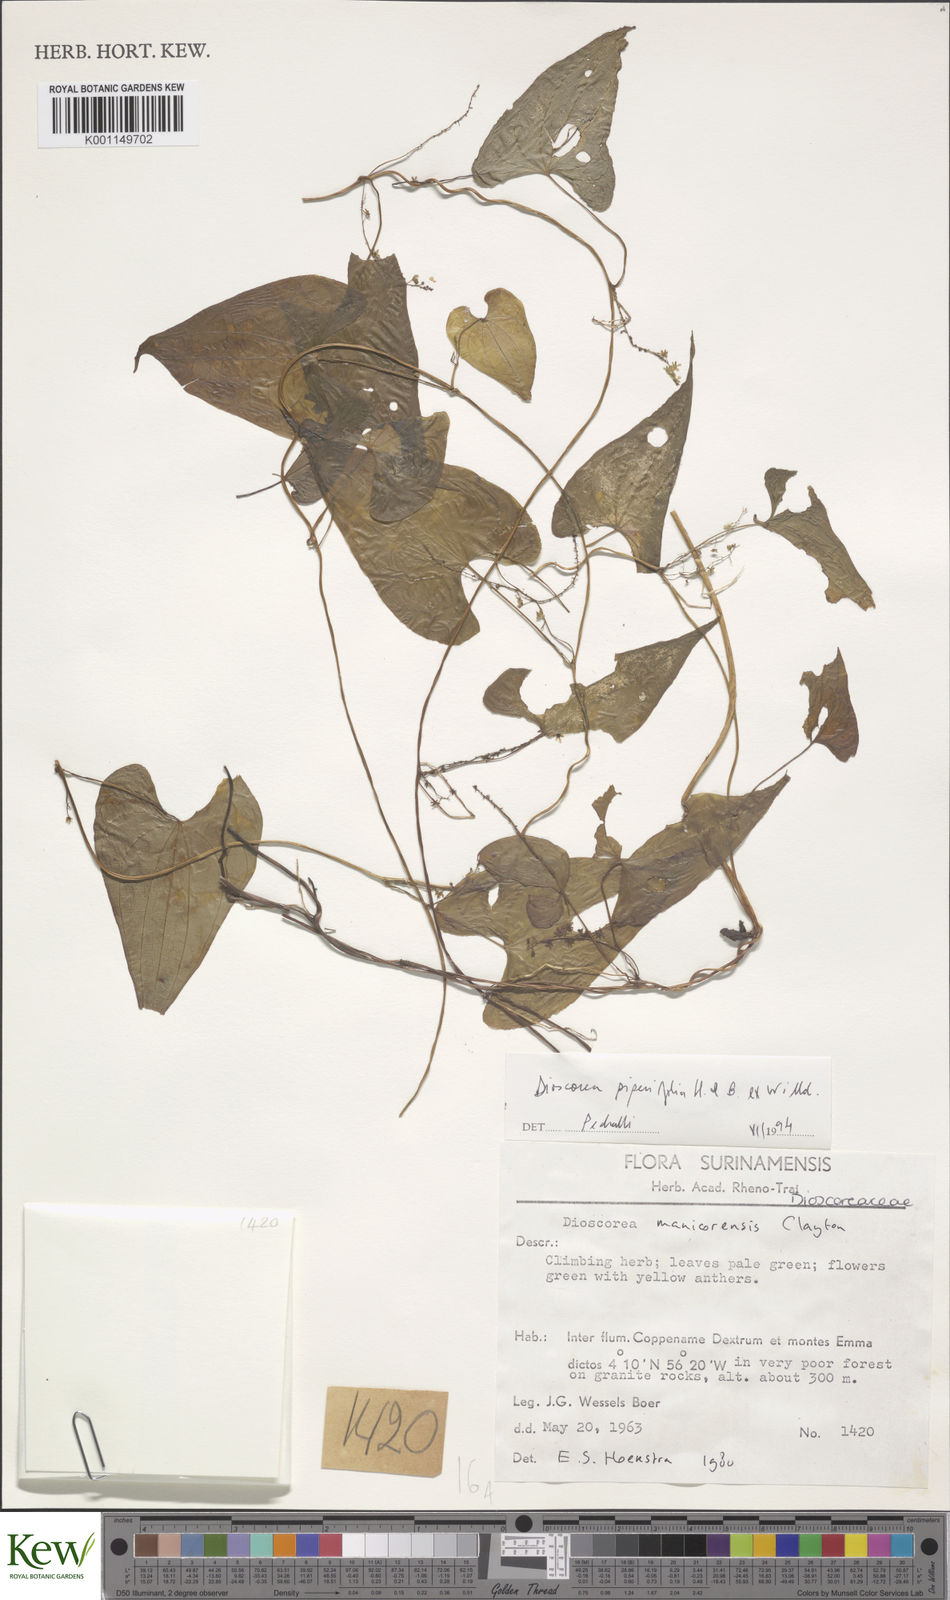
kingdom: Plantae
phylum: Tracheophyta
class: Liliopsida
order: Dioscoreales
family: Dioscoreaceae
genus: Dioscorea
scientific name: Dioscorea piperifolia
